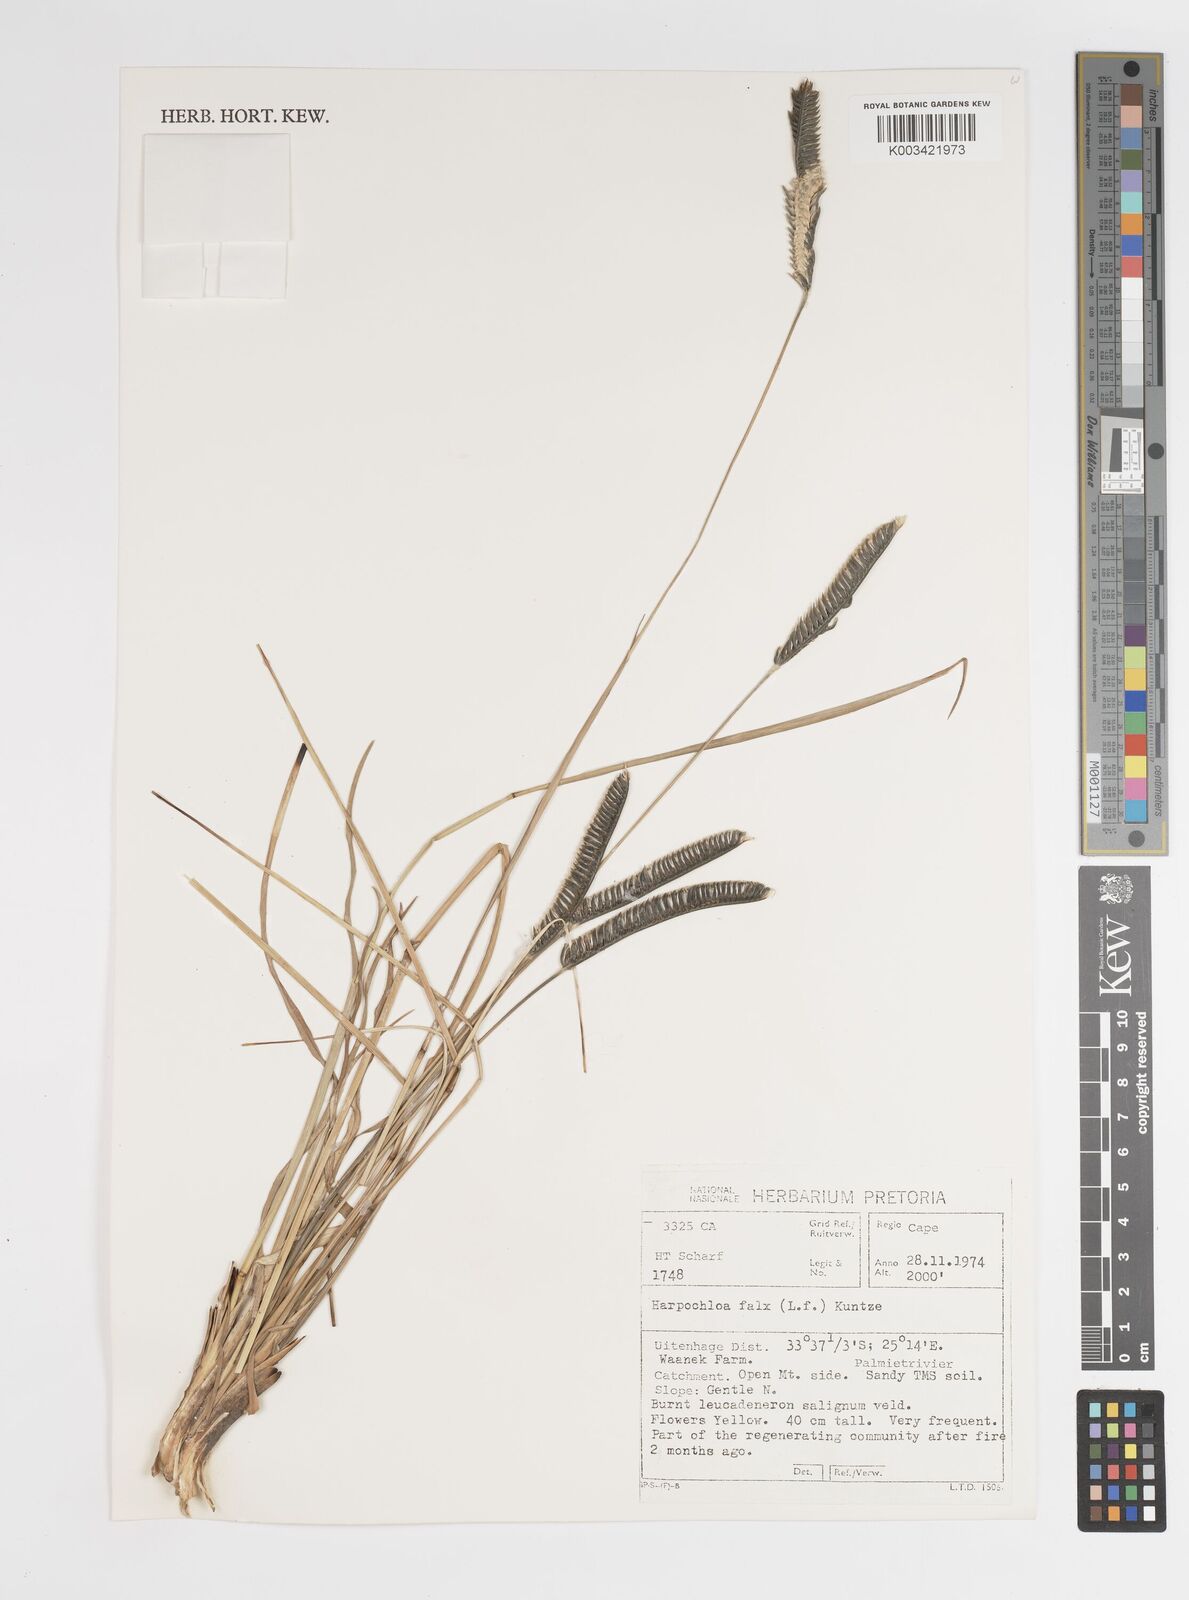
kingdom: Plantae
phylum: Tracheophyta
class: Liliopsida
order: Poales
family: Poaceae
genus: Harpochloa
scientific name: Harpochloa falx
